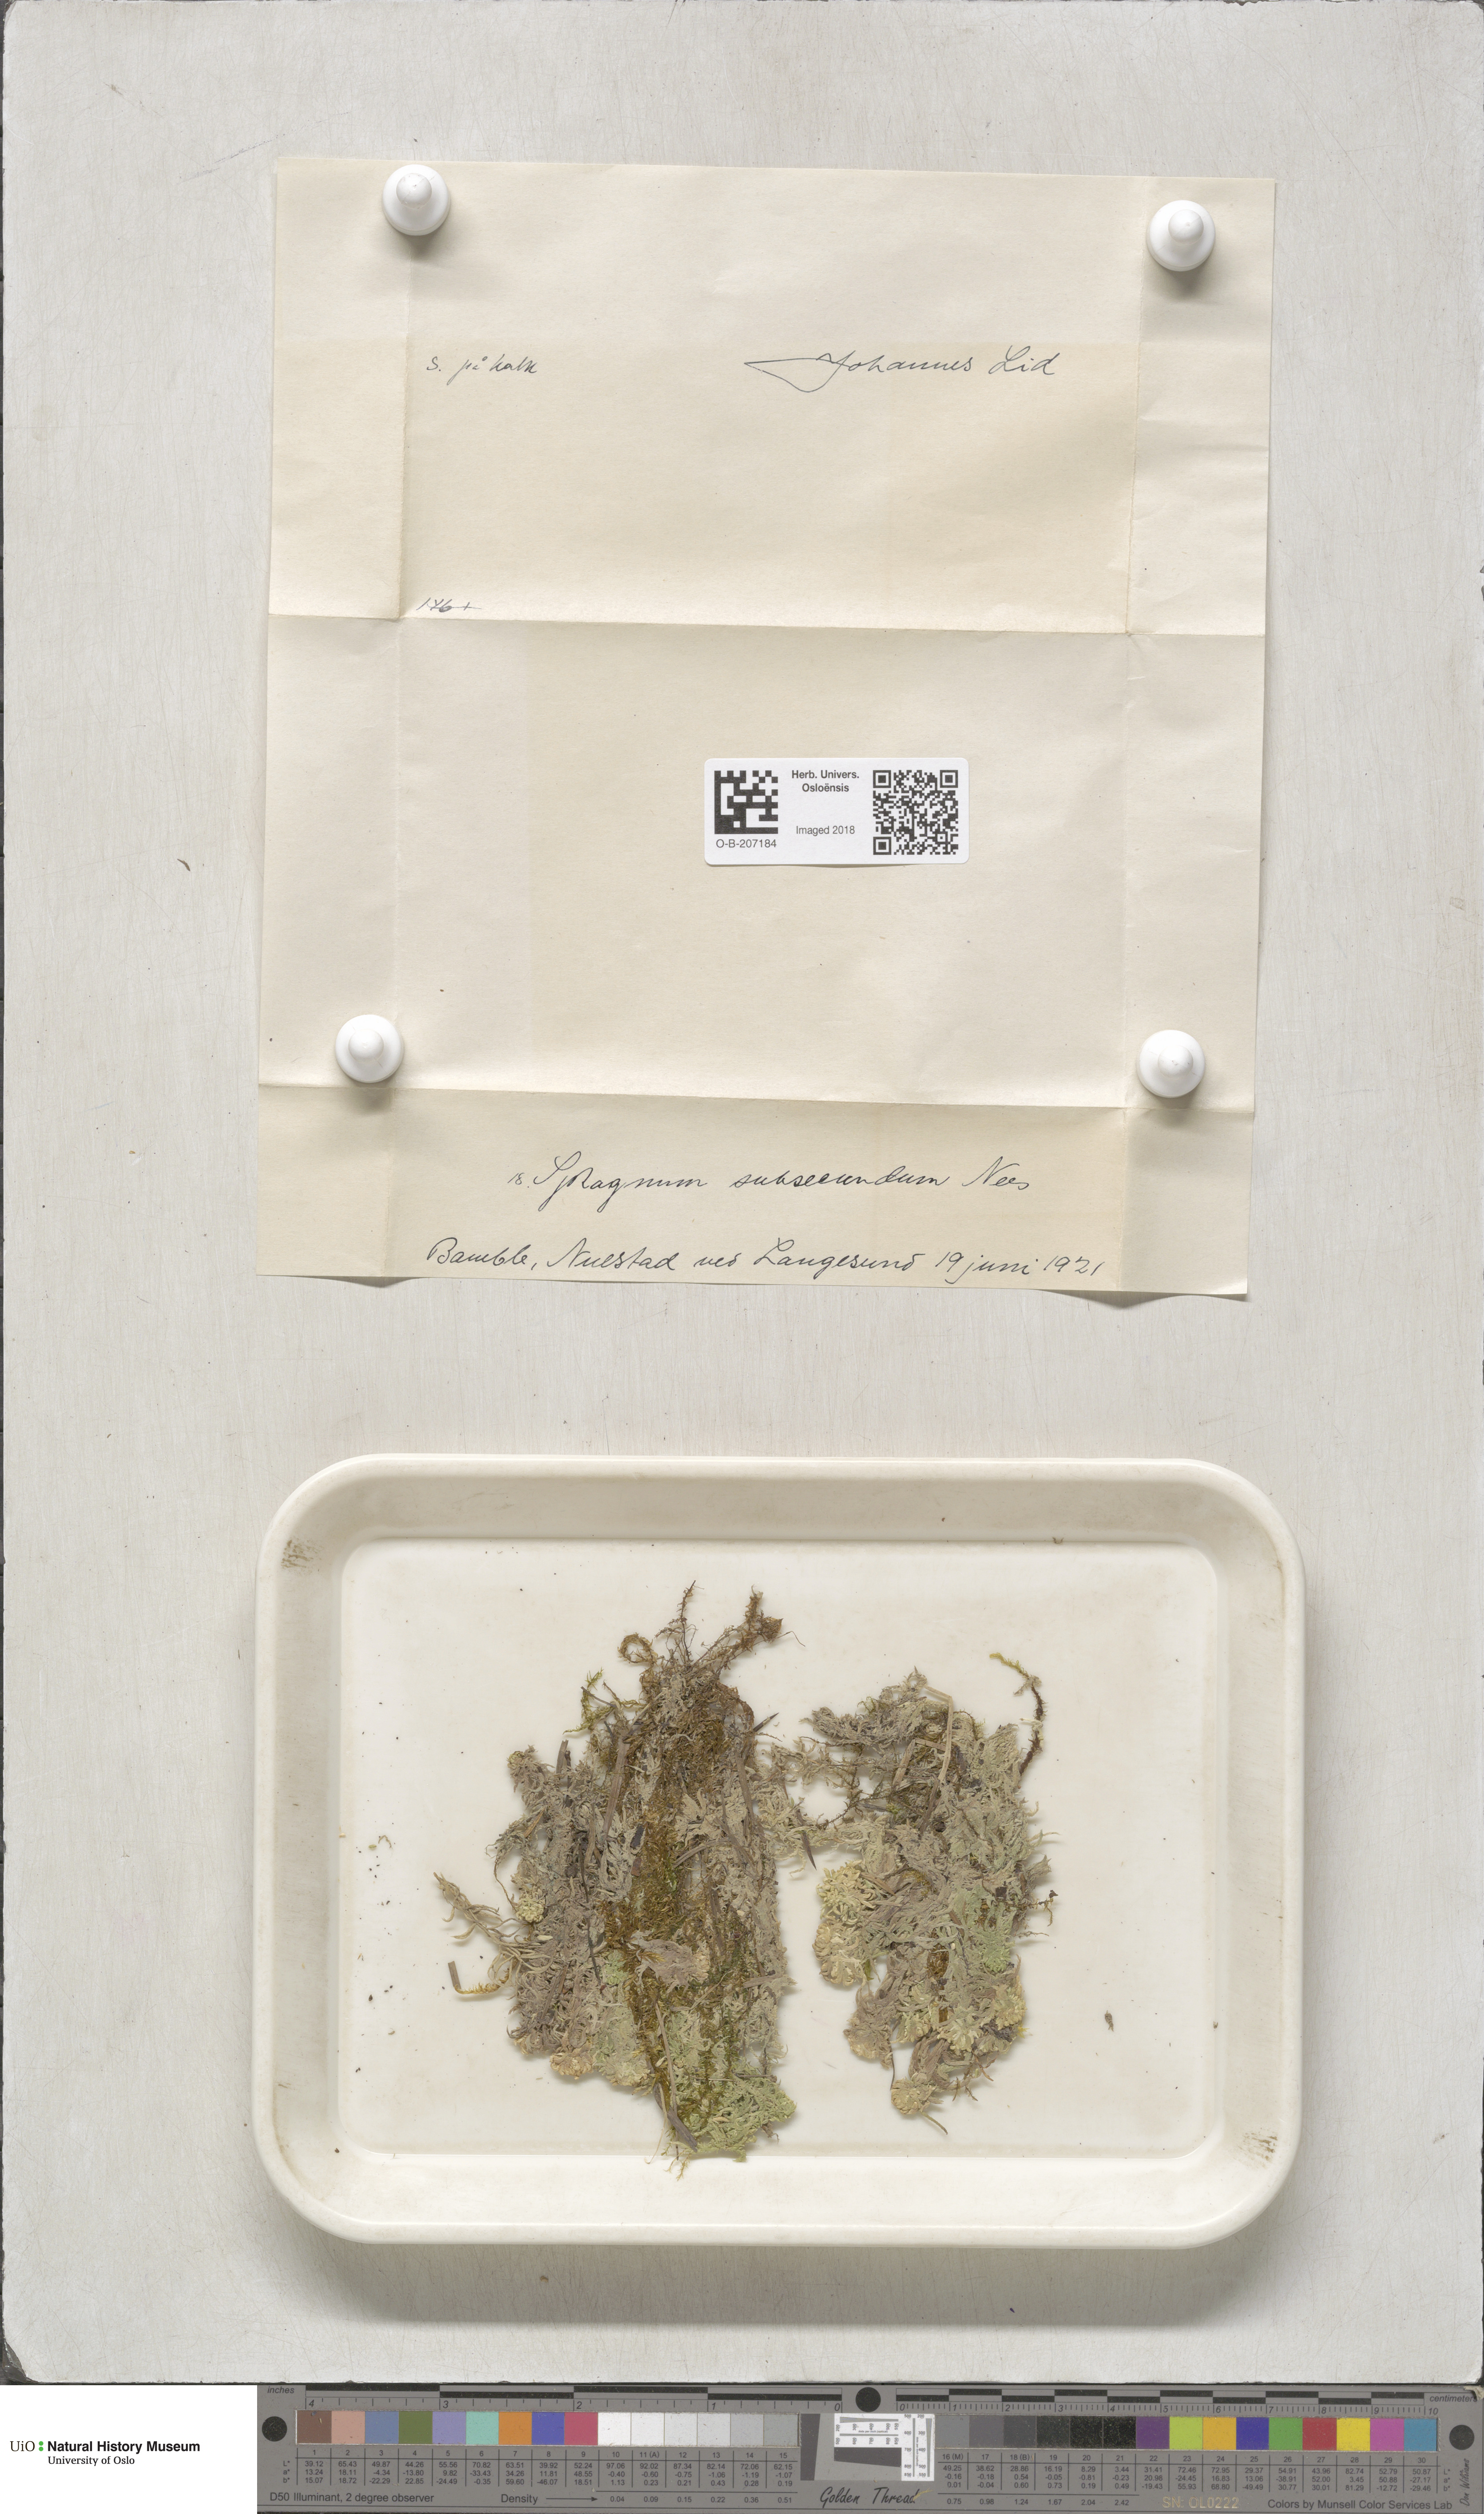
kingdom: Plantae
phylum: Bryophyta
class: Sphagnopsida
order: Sphagnales
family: Sphagnaceae
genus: Sphagnum
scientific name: Sphagnum subsecundum
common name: Orange peat moss
